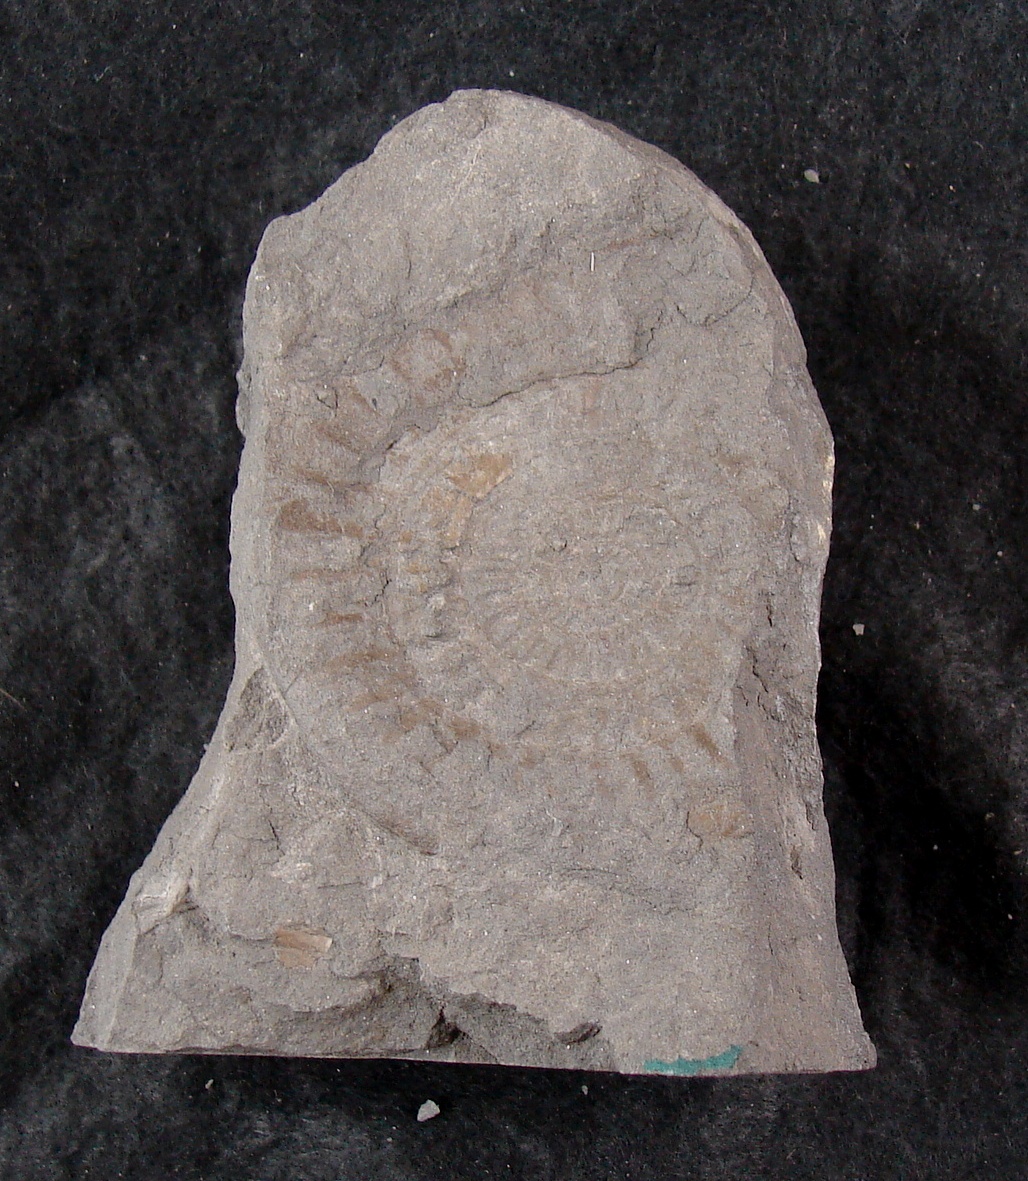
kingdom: Animalia
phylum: Mollusca
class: Cephalopoda
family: Psiloceratidae
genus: Caloceras
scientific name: Caloceras
